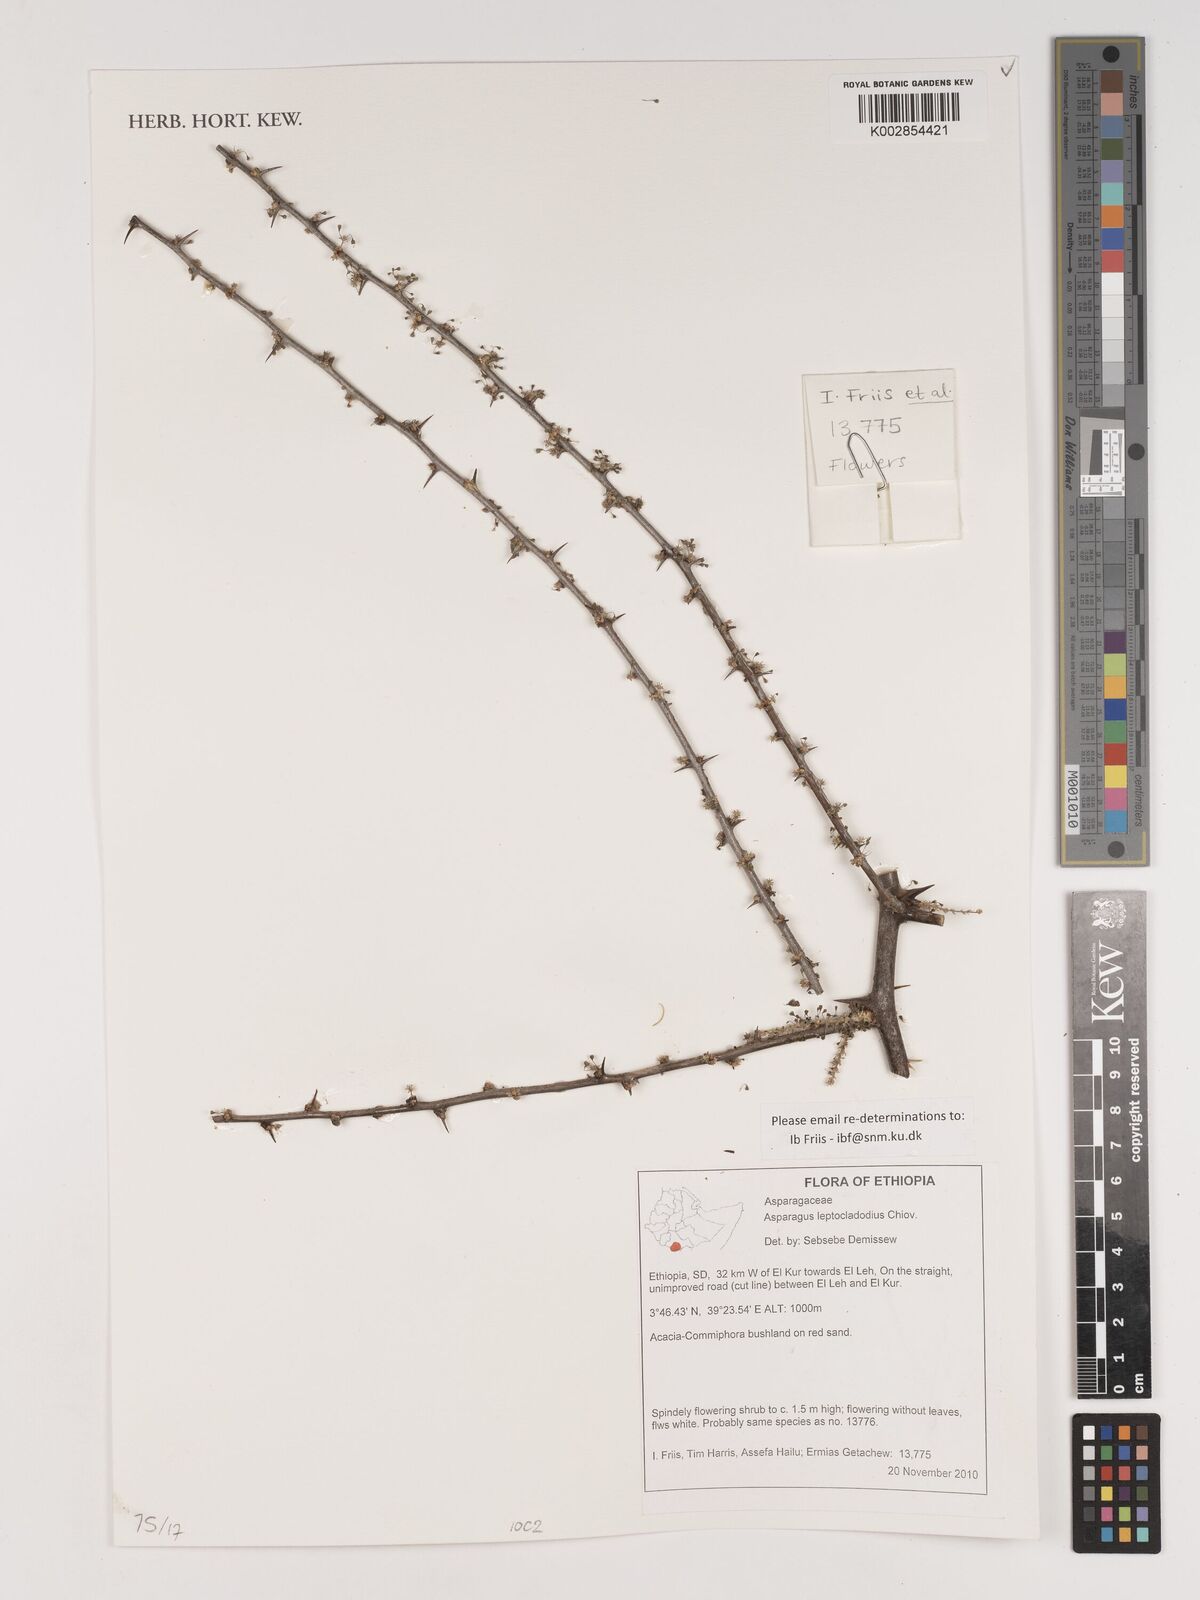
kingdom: Plantae
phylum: Tracheophyta
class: Liliopsida
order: Asparagales
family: Asparagaceae
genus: Asparagus
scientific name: Asparagus leptocladodius
